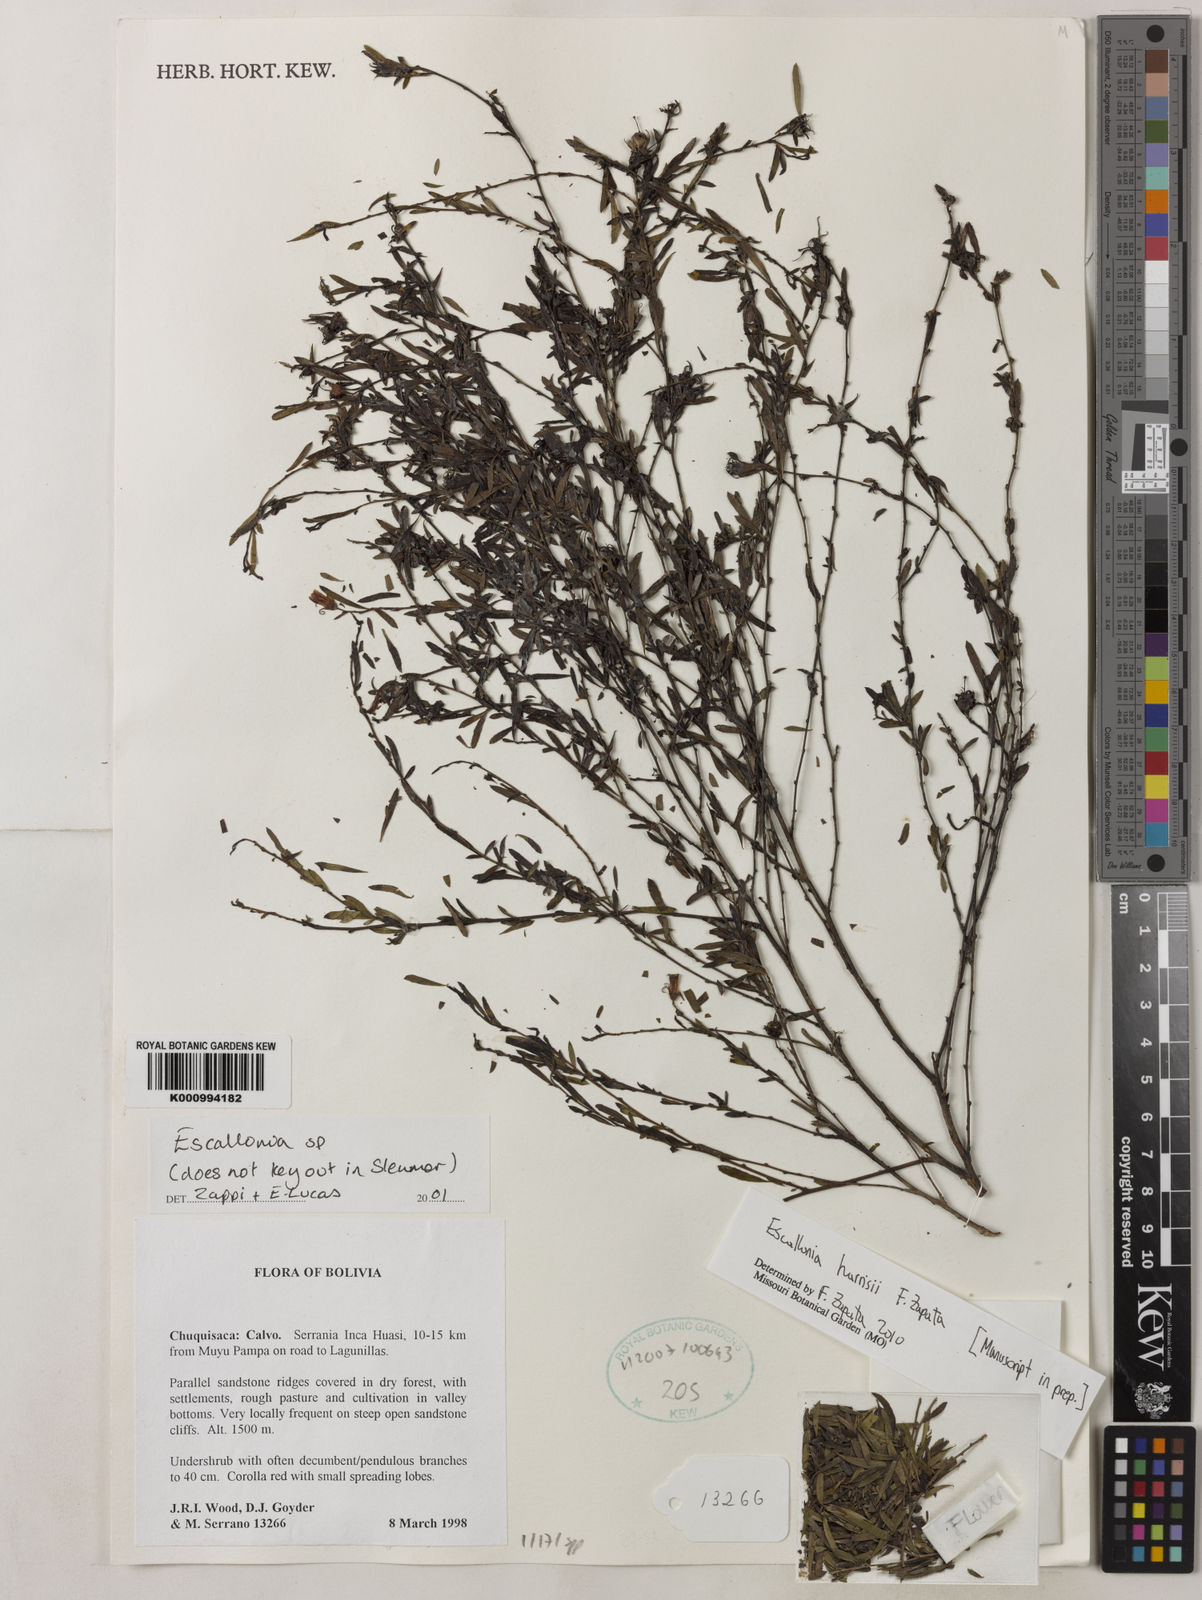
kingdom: Plantae
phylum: Tracheophyta
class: Magnoliopsida
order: Escalloniales
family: Escalloniaceae
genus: Escallonia
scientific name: Escallonia
